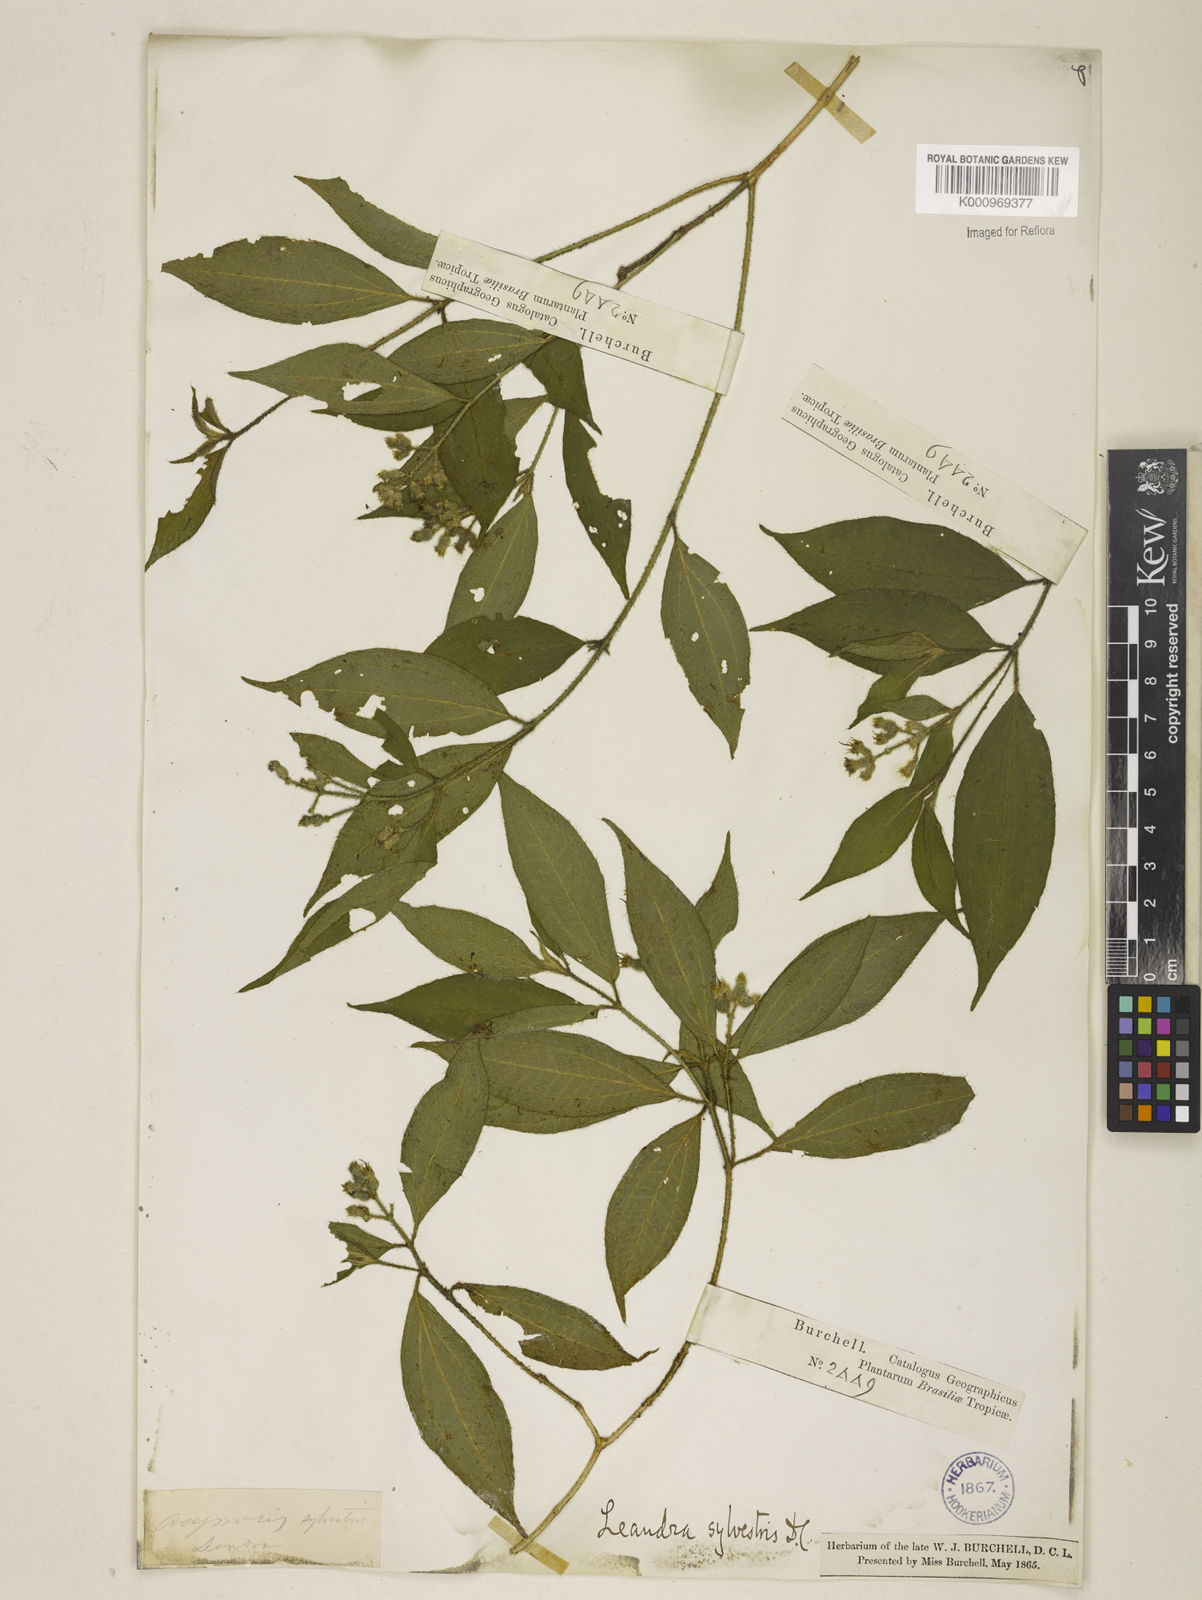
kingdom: Plantae
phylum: Tracheophyta
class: Magnoliopsida
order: Myrtales
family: Melastomataceae
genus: Miconia
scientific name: Miconia dubia
